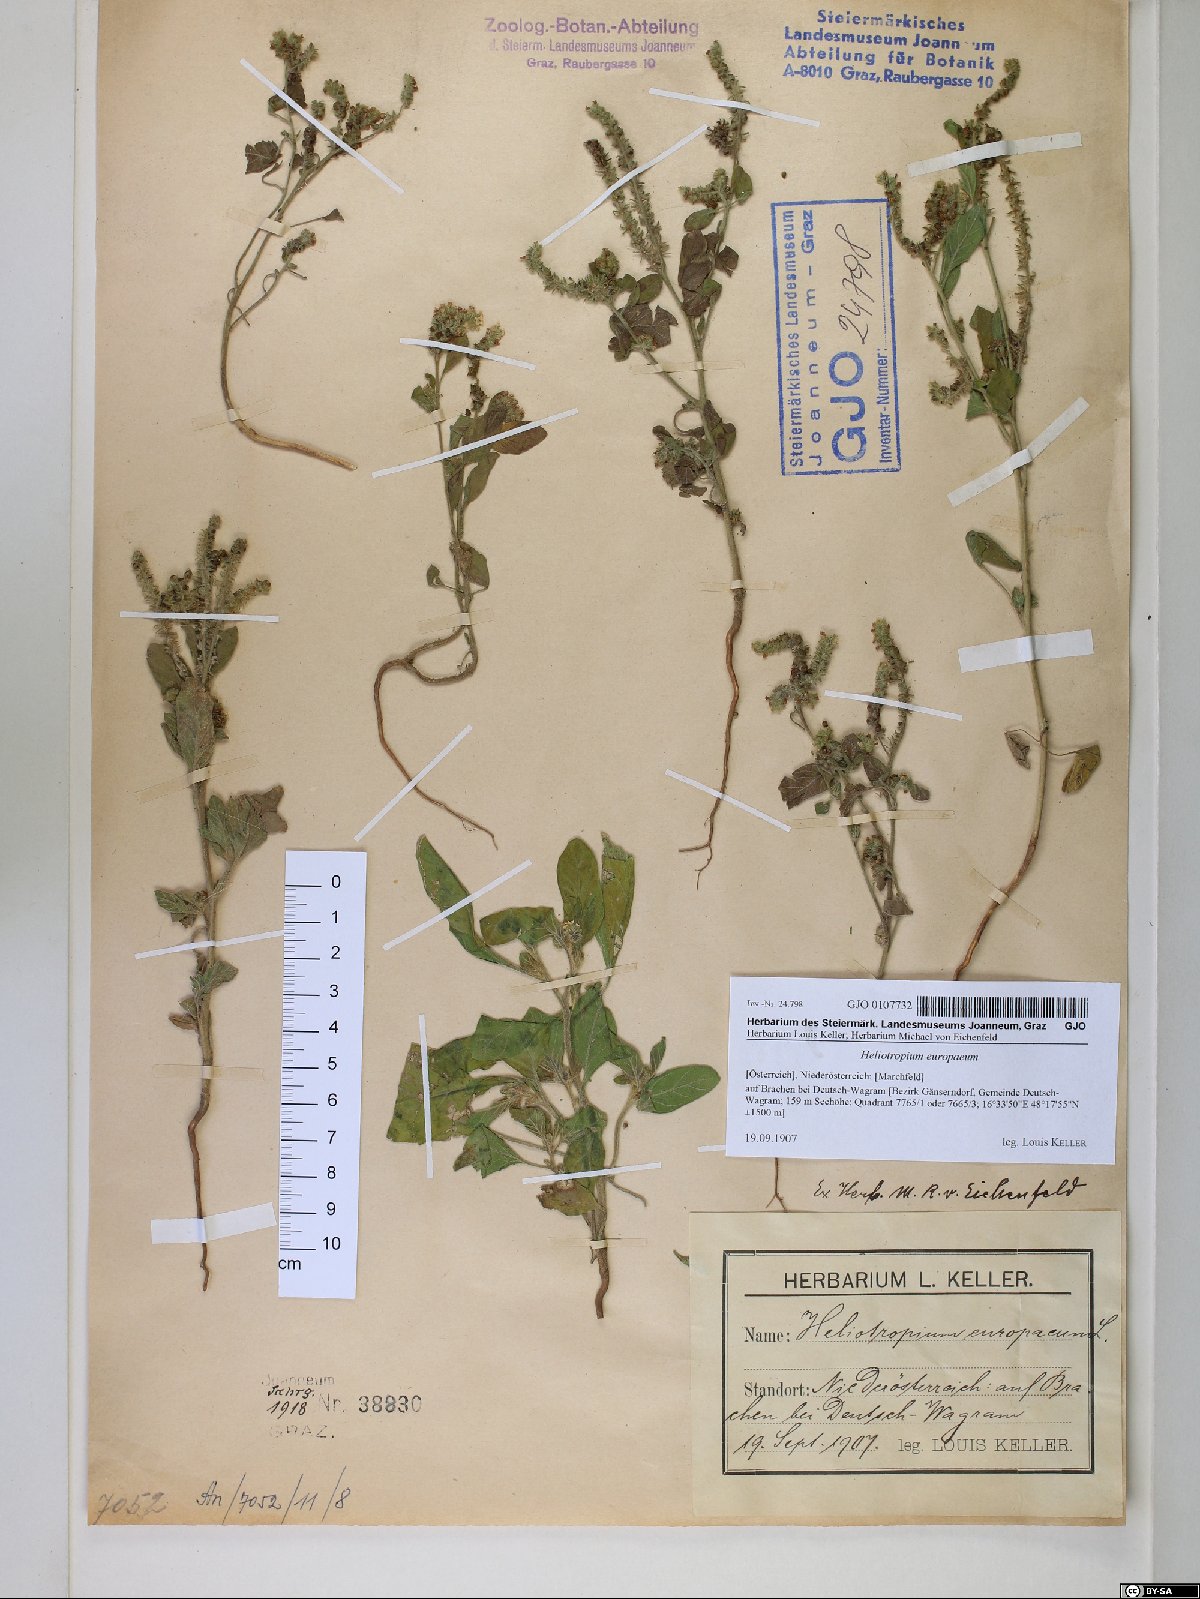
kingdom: Plantae
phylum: Tracheophyta
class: Magnoliopsida
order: Boraginales
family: Heliotropiaceae
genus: Heliotropium
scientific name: Heliotropium europaeum
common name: European heliotrope
